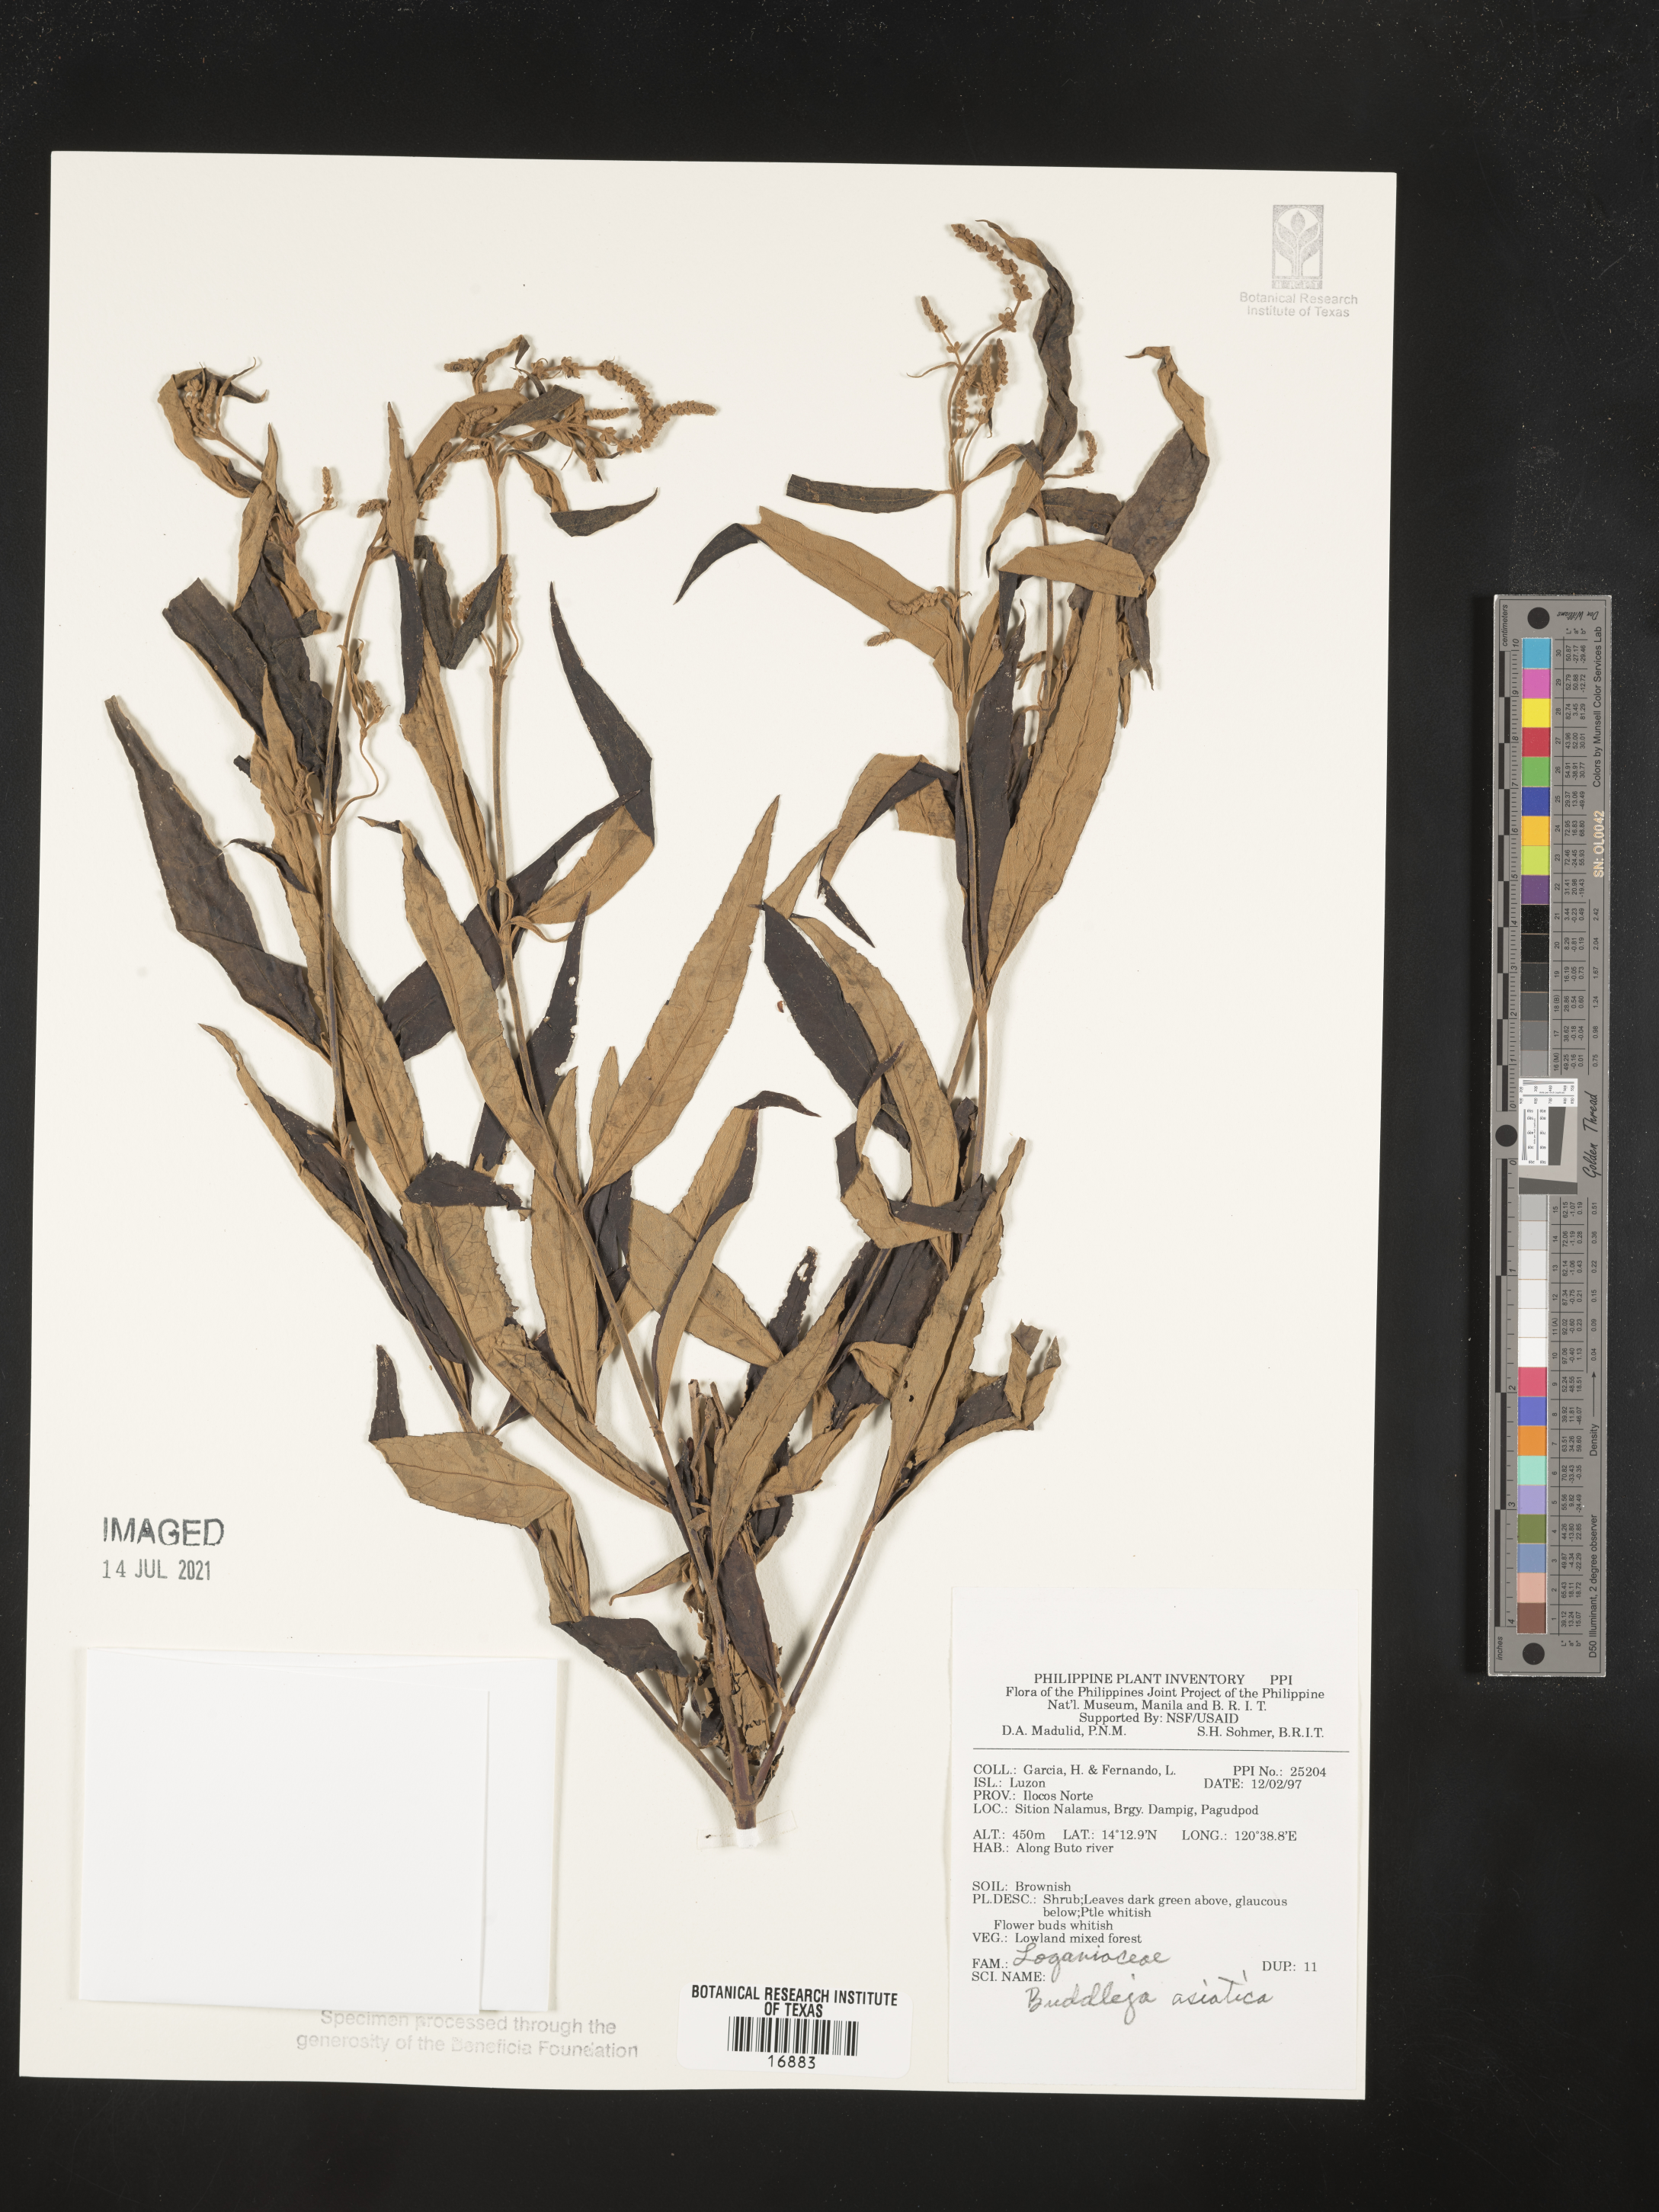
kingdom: Plantae
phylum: Tracheophyta
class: Magnoliopsida
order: Lamiales
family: Scrophulariaceae
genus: Buddleja
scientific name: Buddleja asiatica
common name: Dog tail
